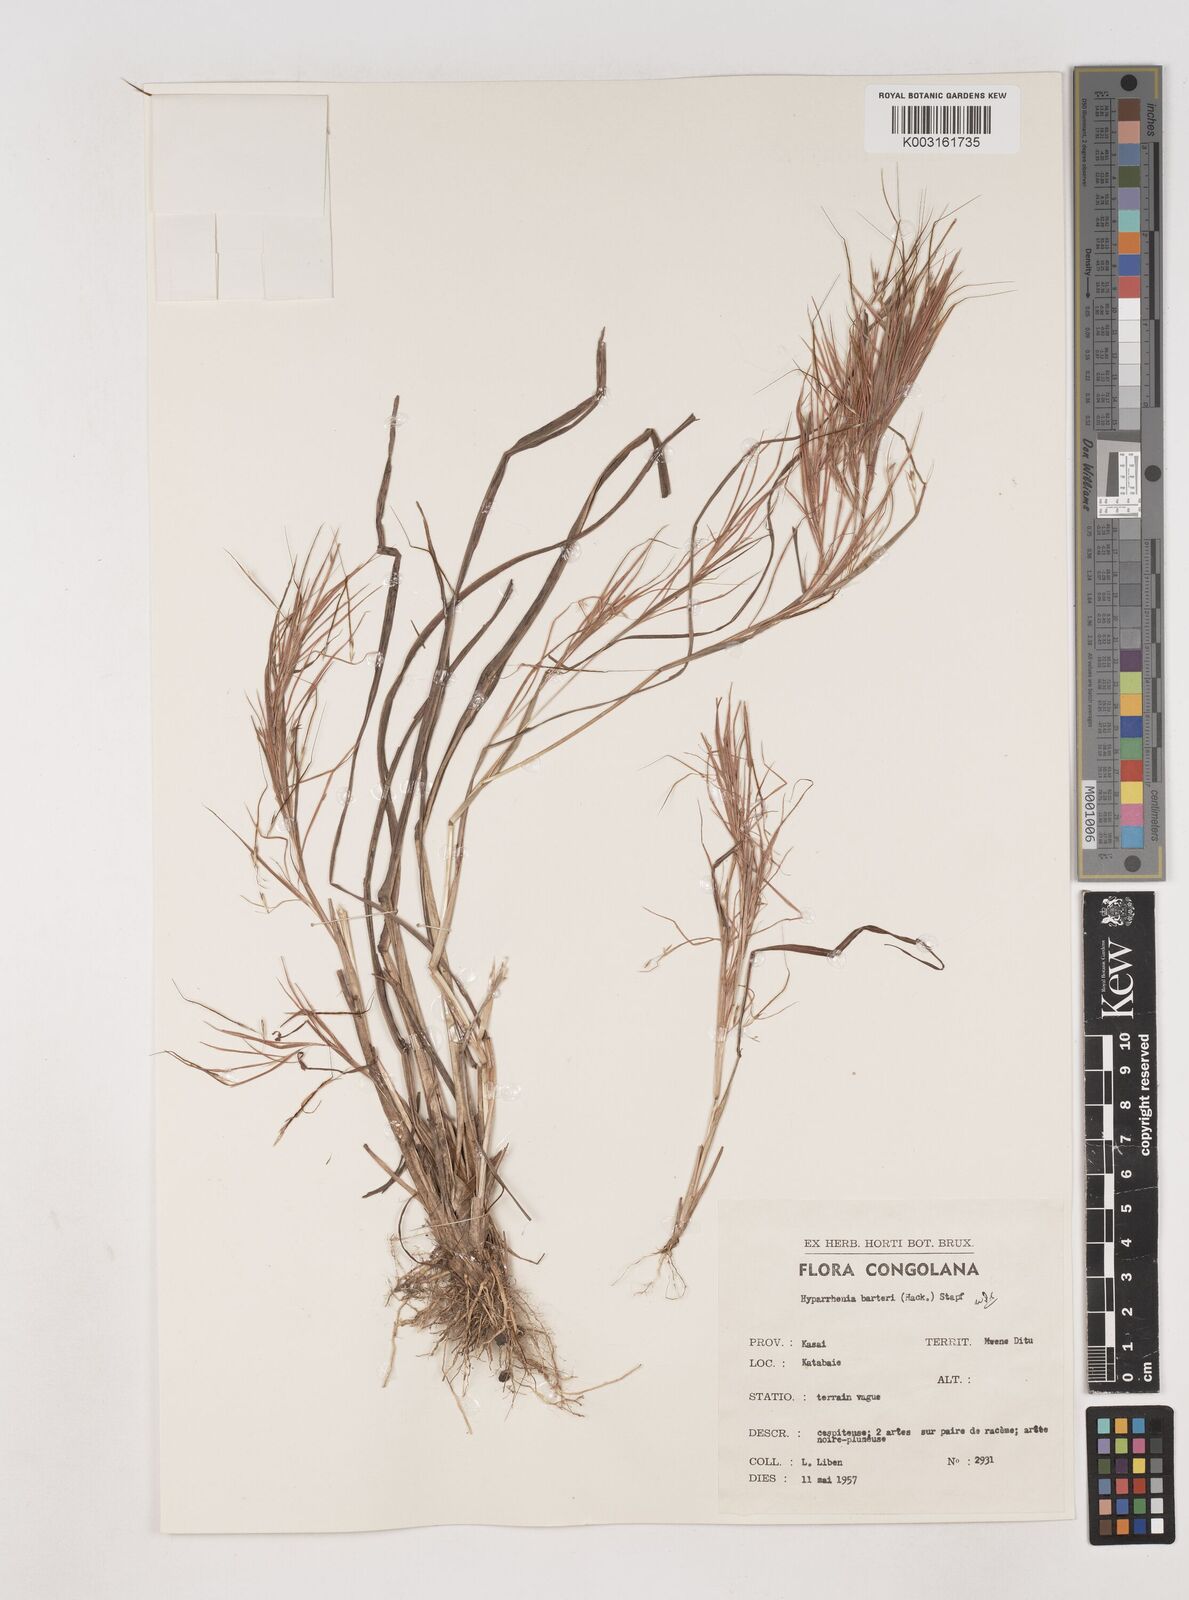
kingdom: Plantae
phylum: Tracheophyta
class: Liliopsida
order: Poales
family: Poaceae
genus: Hyparrhenia
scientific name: Hyparrhenia barteri
